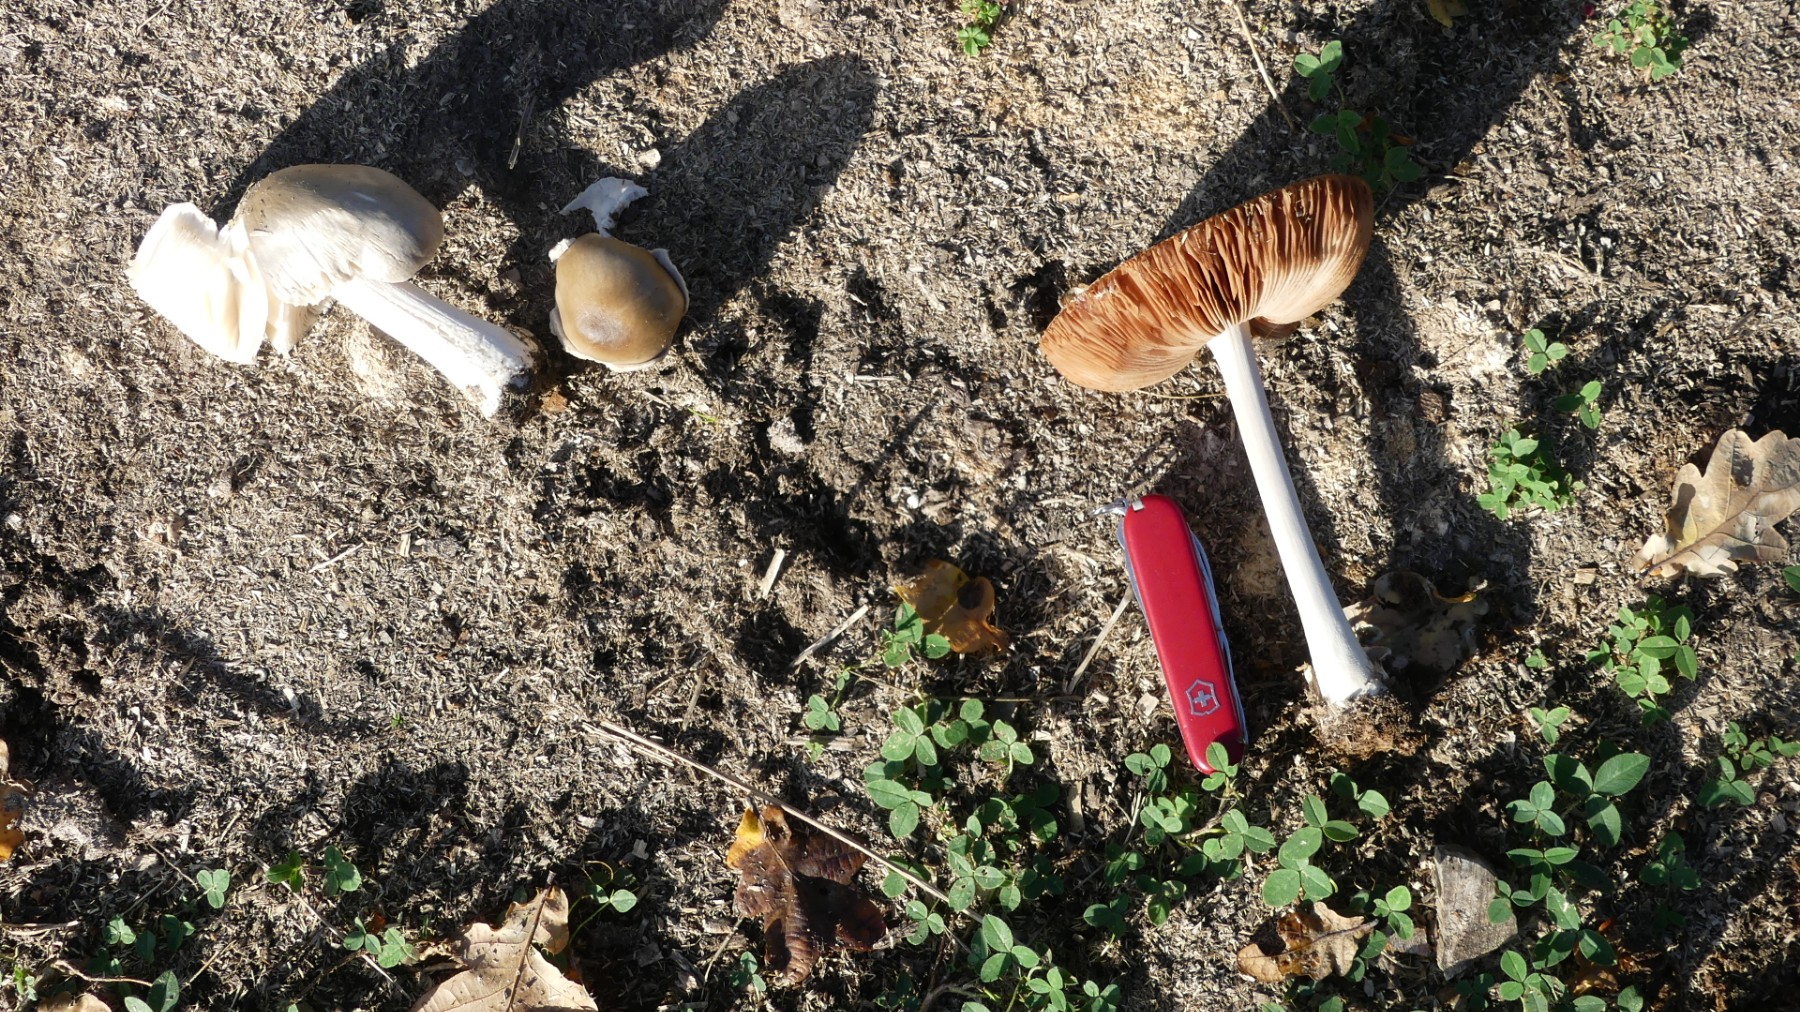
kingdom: Fungi
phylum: Basidiomycota
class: Agaricomycetes
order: Agaricales
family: Pluteaceae
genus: Volvopluteus
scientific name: Volvopluteus gloiocephalus
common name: høj posesvamp
